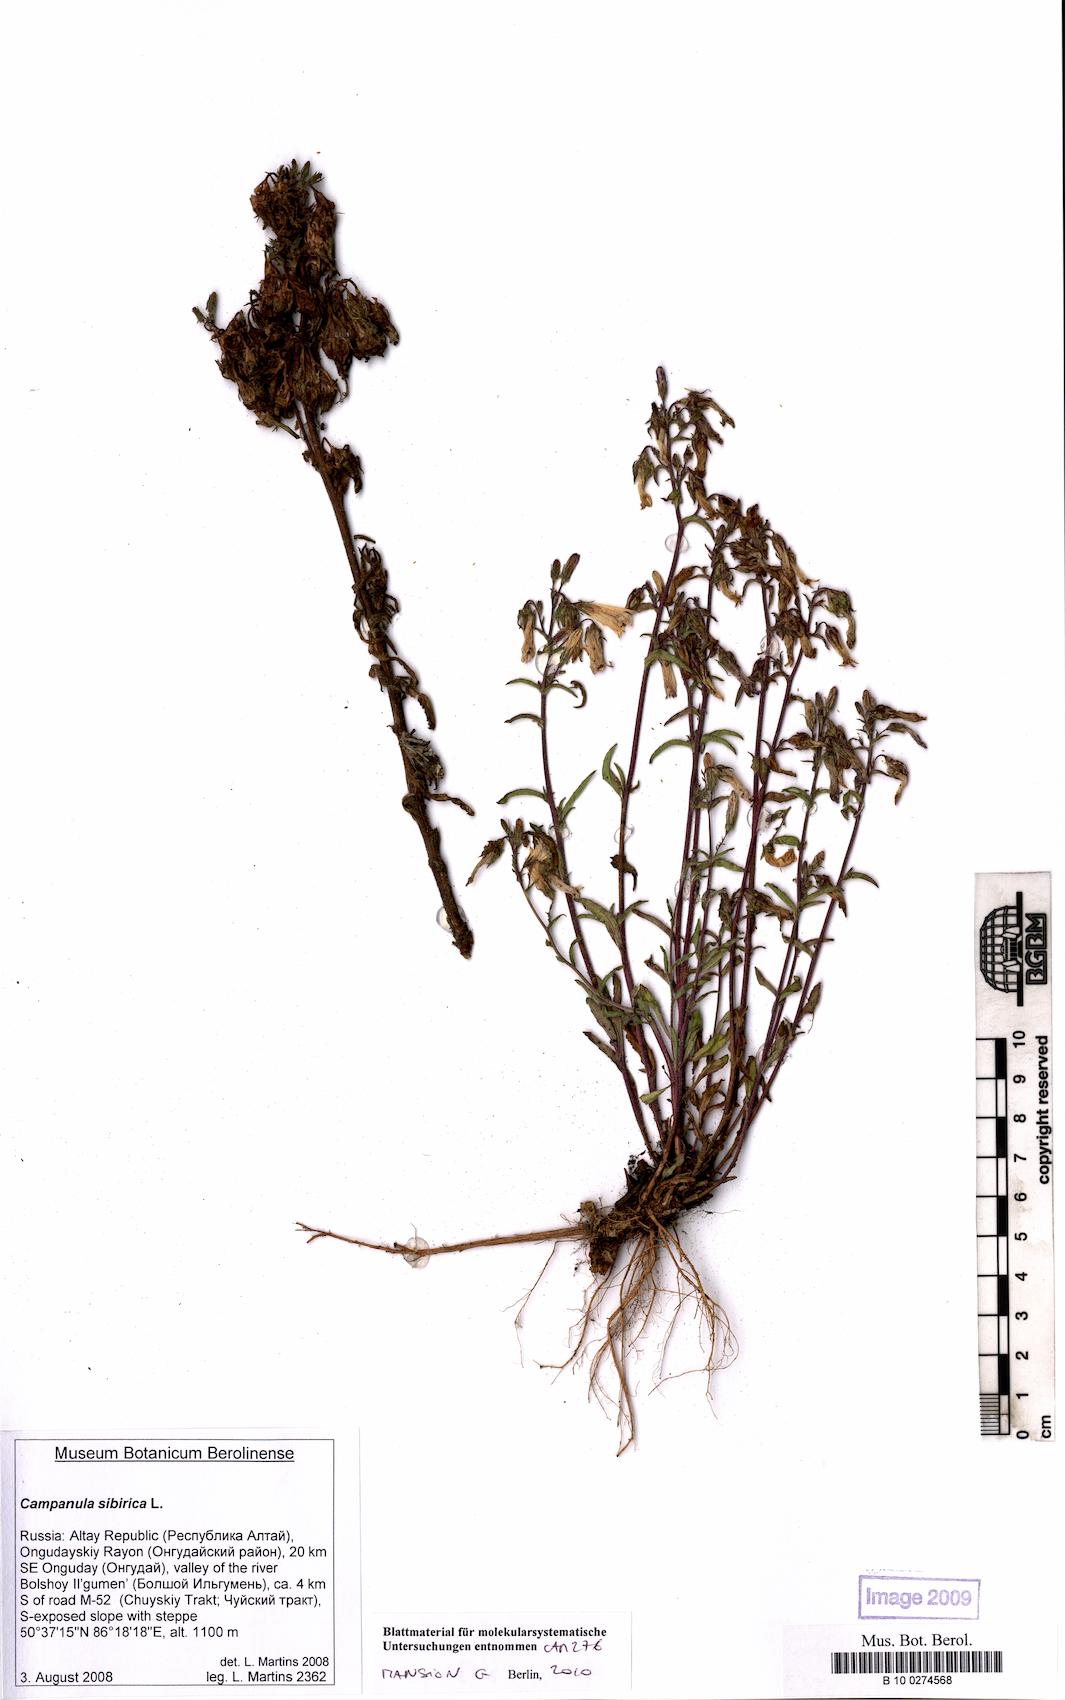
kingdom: Plantae
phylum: Tracheophyta
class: Magnoliopsida
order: Asterales
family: Campanulaceae
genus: Campanula
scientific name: Campanula sibirica
